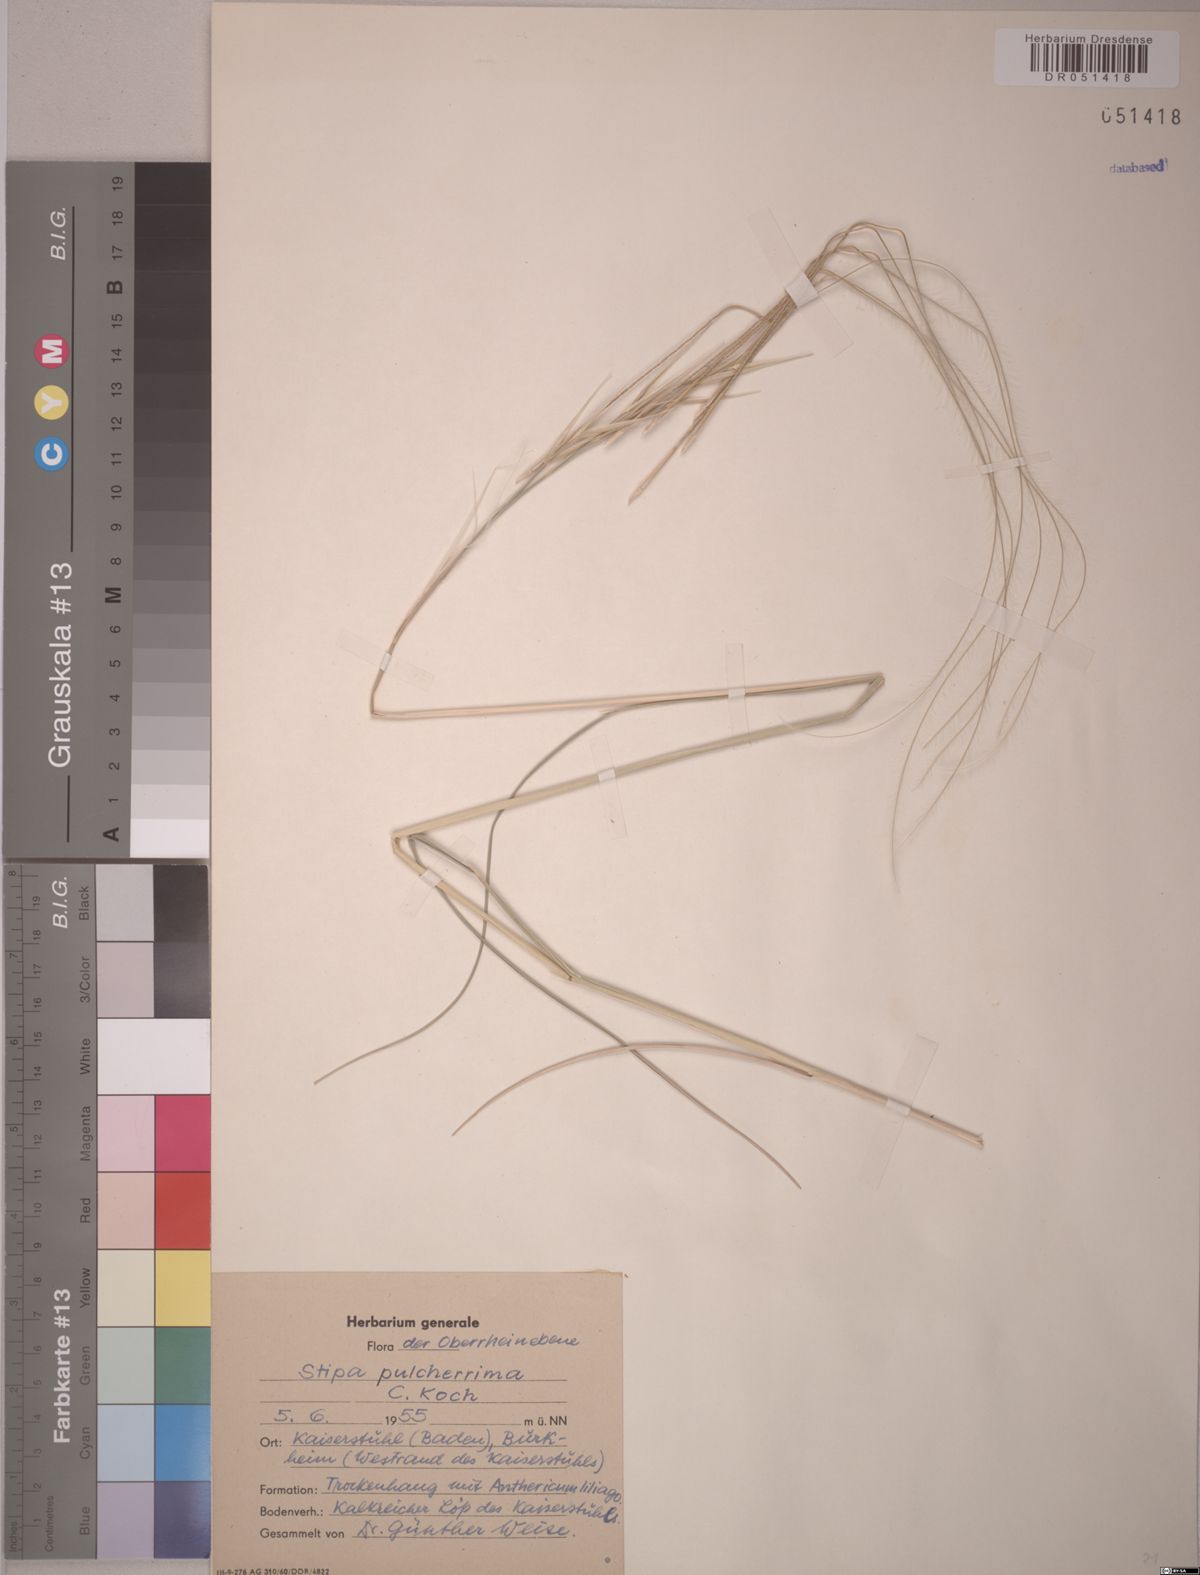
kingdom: Plantae
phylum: Tracheophyta
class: Liliopsida
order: Poales
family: Poaceae
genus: Stipa
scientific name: Stipa pulcherrima
